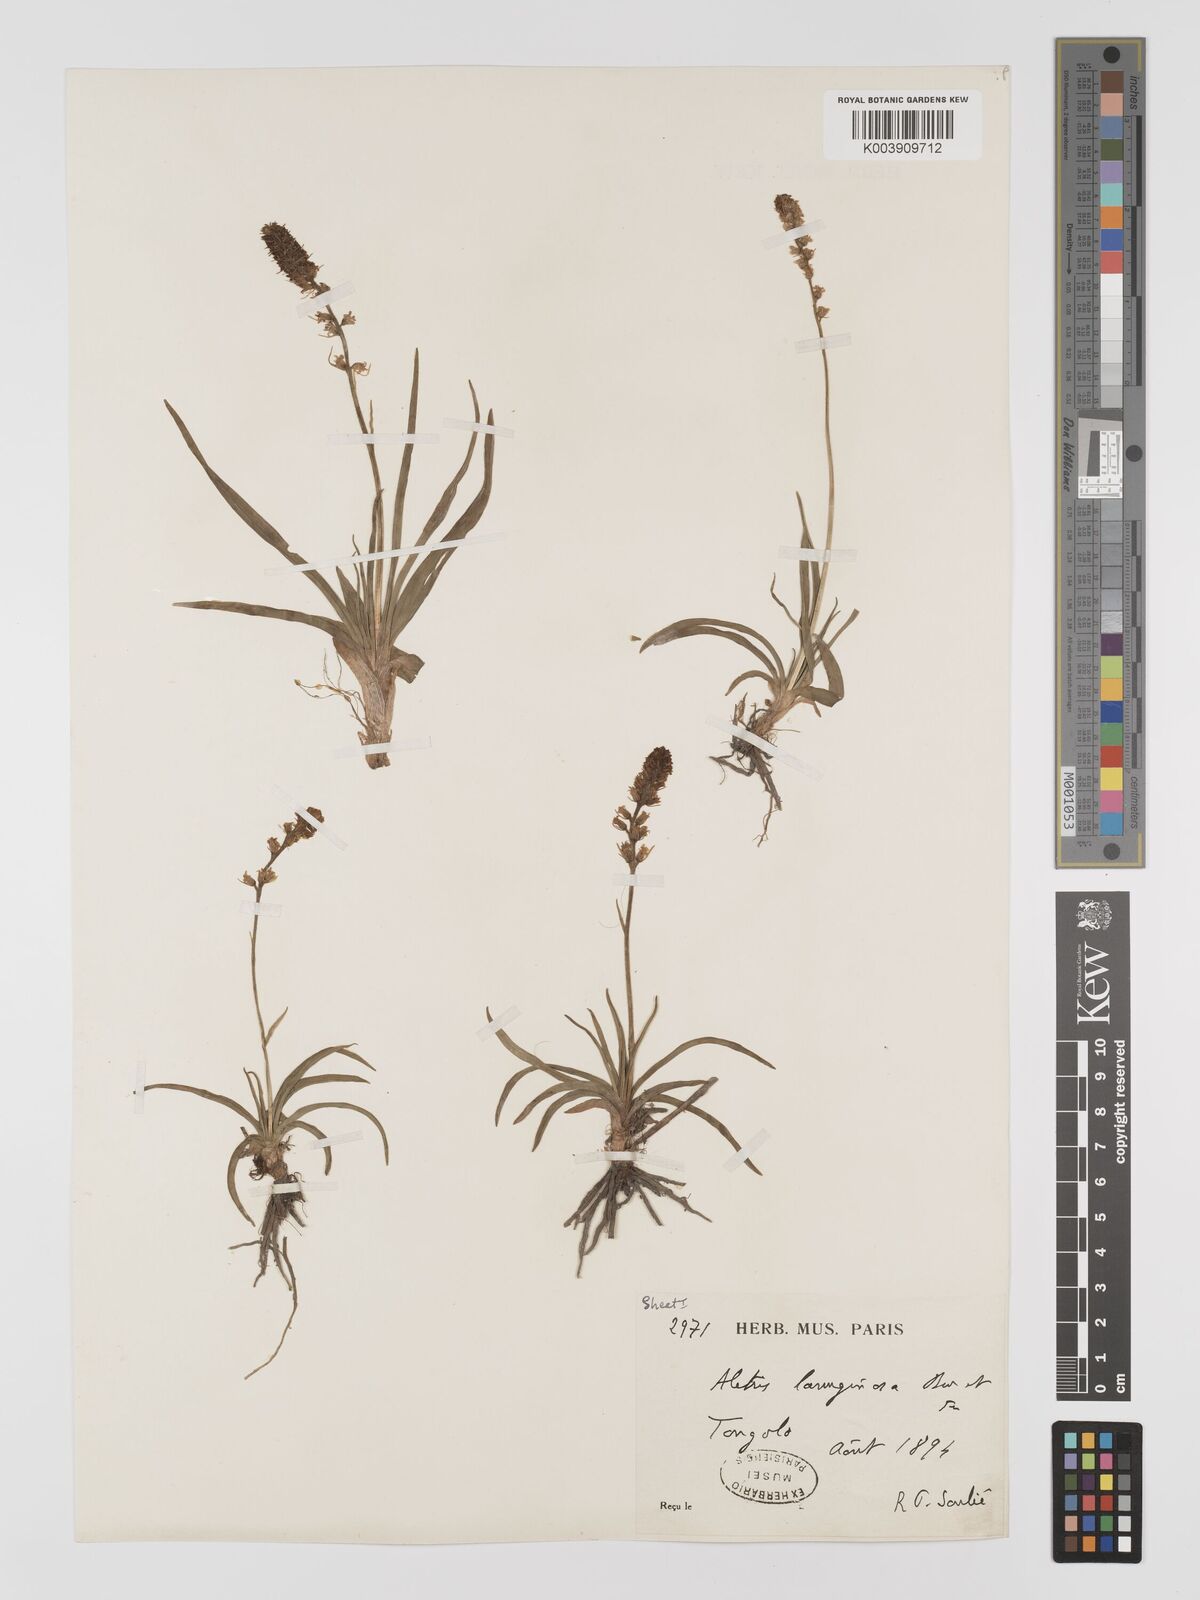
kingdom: Plantae
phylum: Tracheophyta
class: Liliopsida
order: Dioscoreales
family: Nartheciaceae
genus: Aletris
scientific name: Aletris pauciflora
